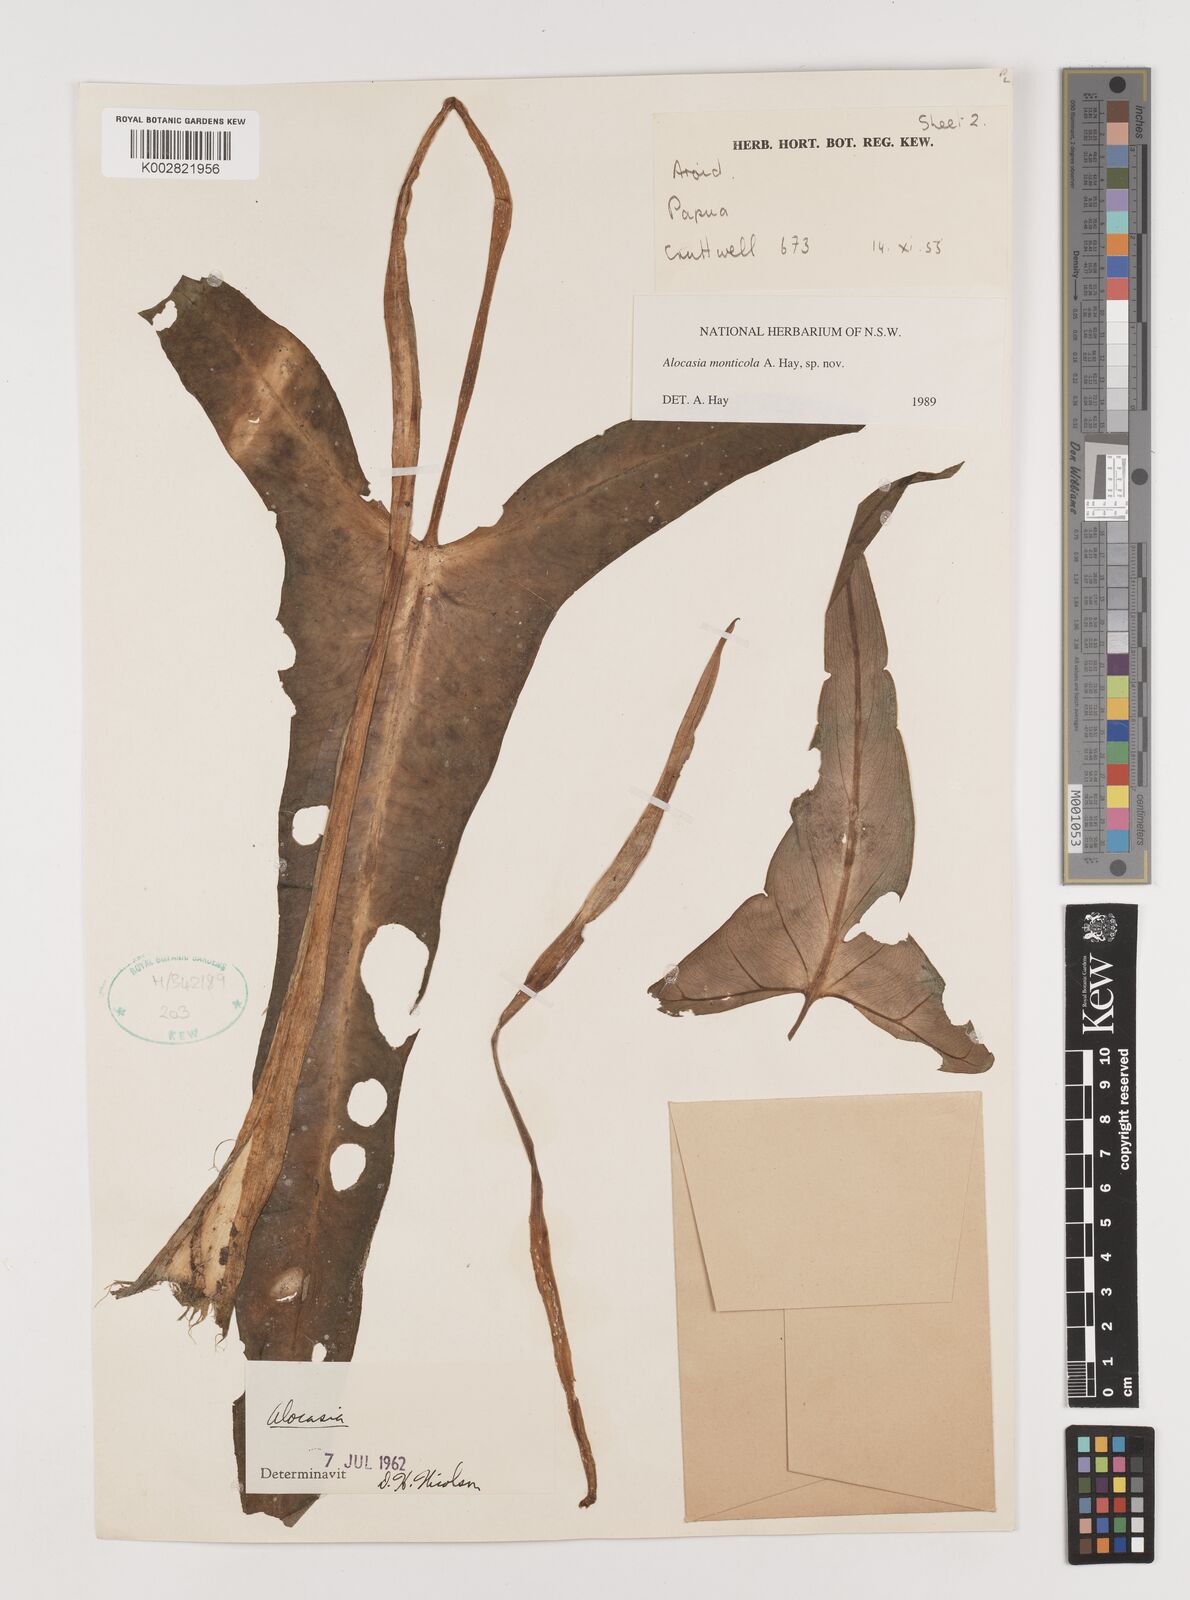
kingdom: Plantae
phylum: Tracheophyta
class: Liliopsida
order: Alismatales
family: Araceae
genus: Alocasia
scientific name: Alocasia monticola
